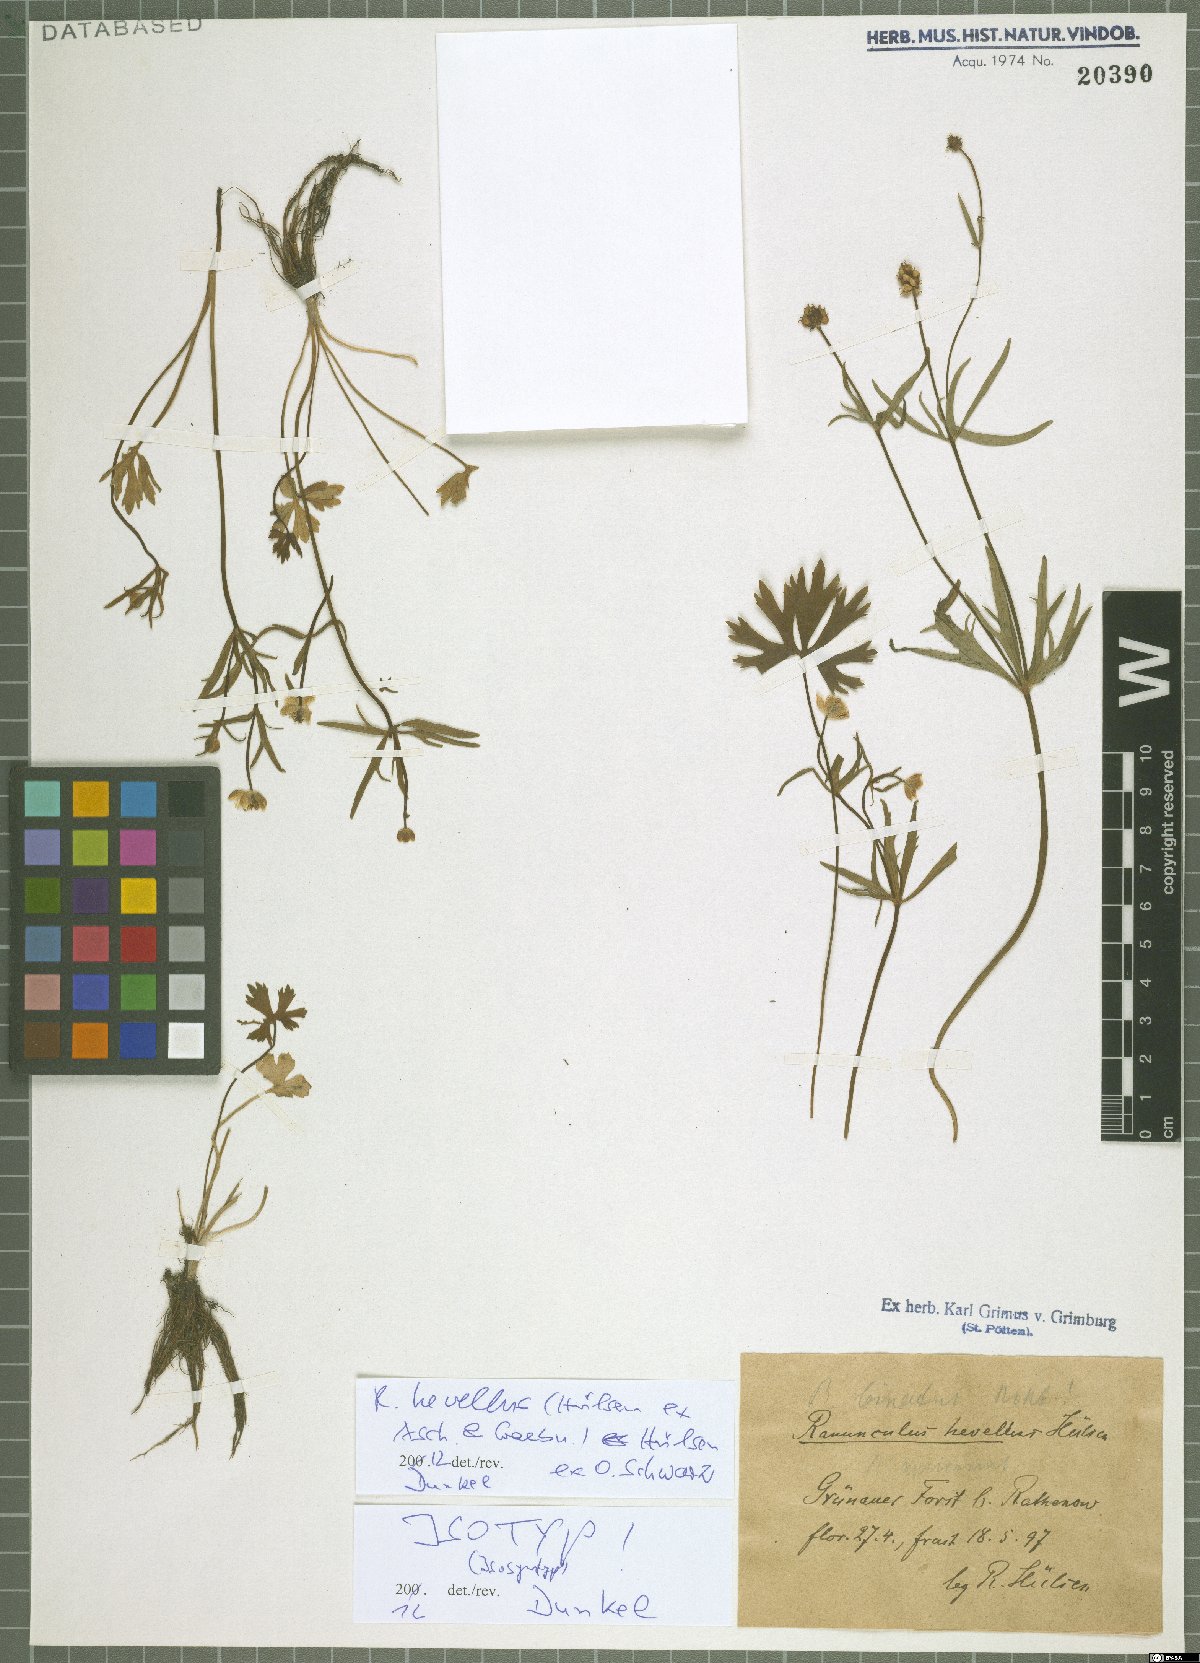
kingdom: Plantae
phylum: Tracheophyta
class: Magnoliopsida
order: Ranunculales
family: Ranunculaceae
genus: Ranunculus
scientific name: Ranunculus hevellus
